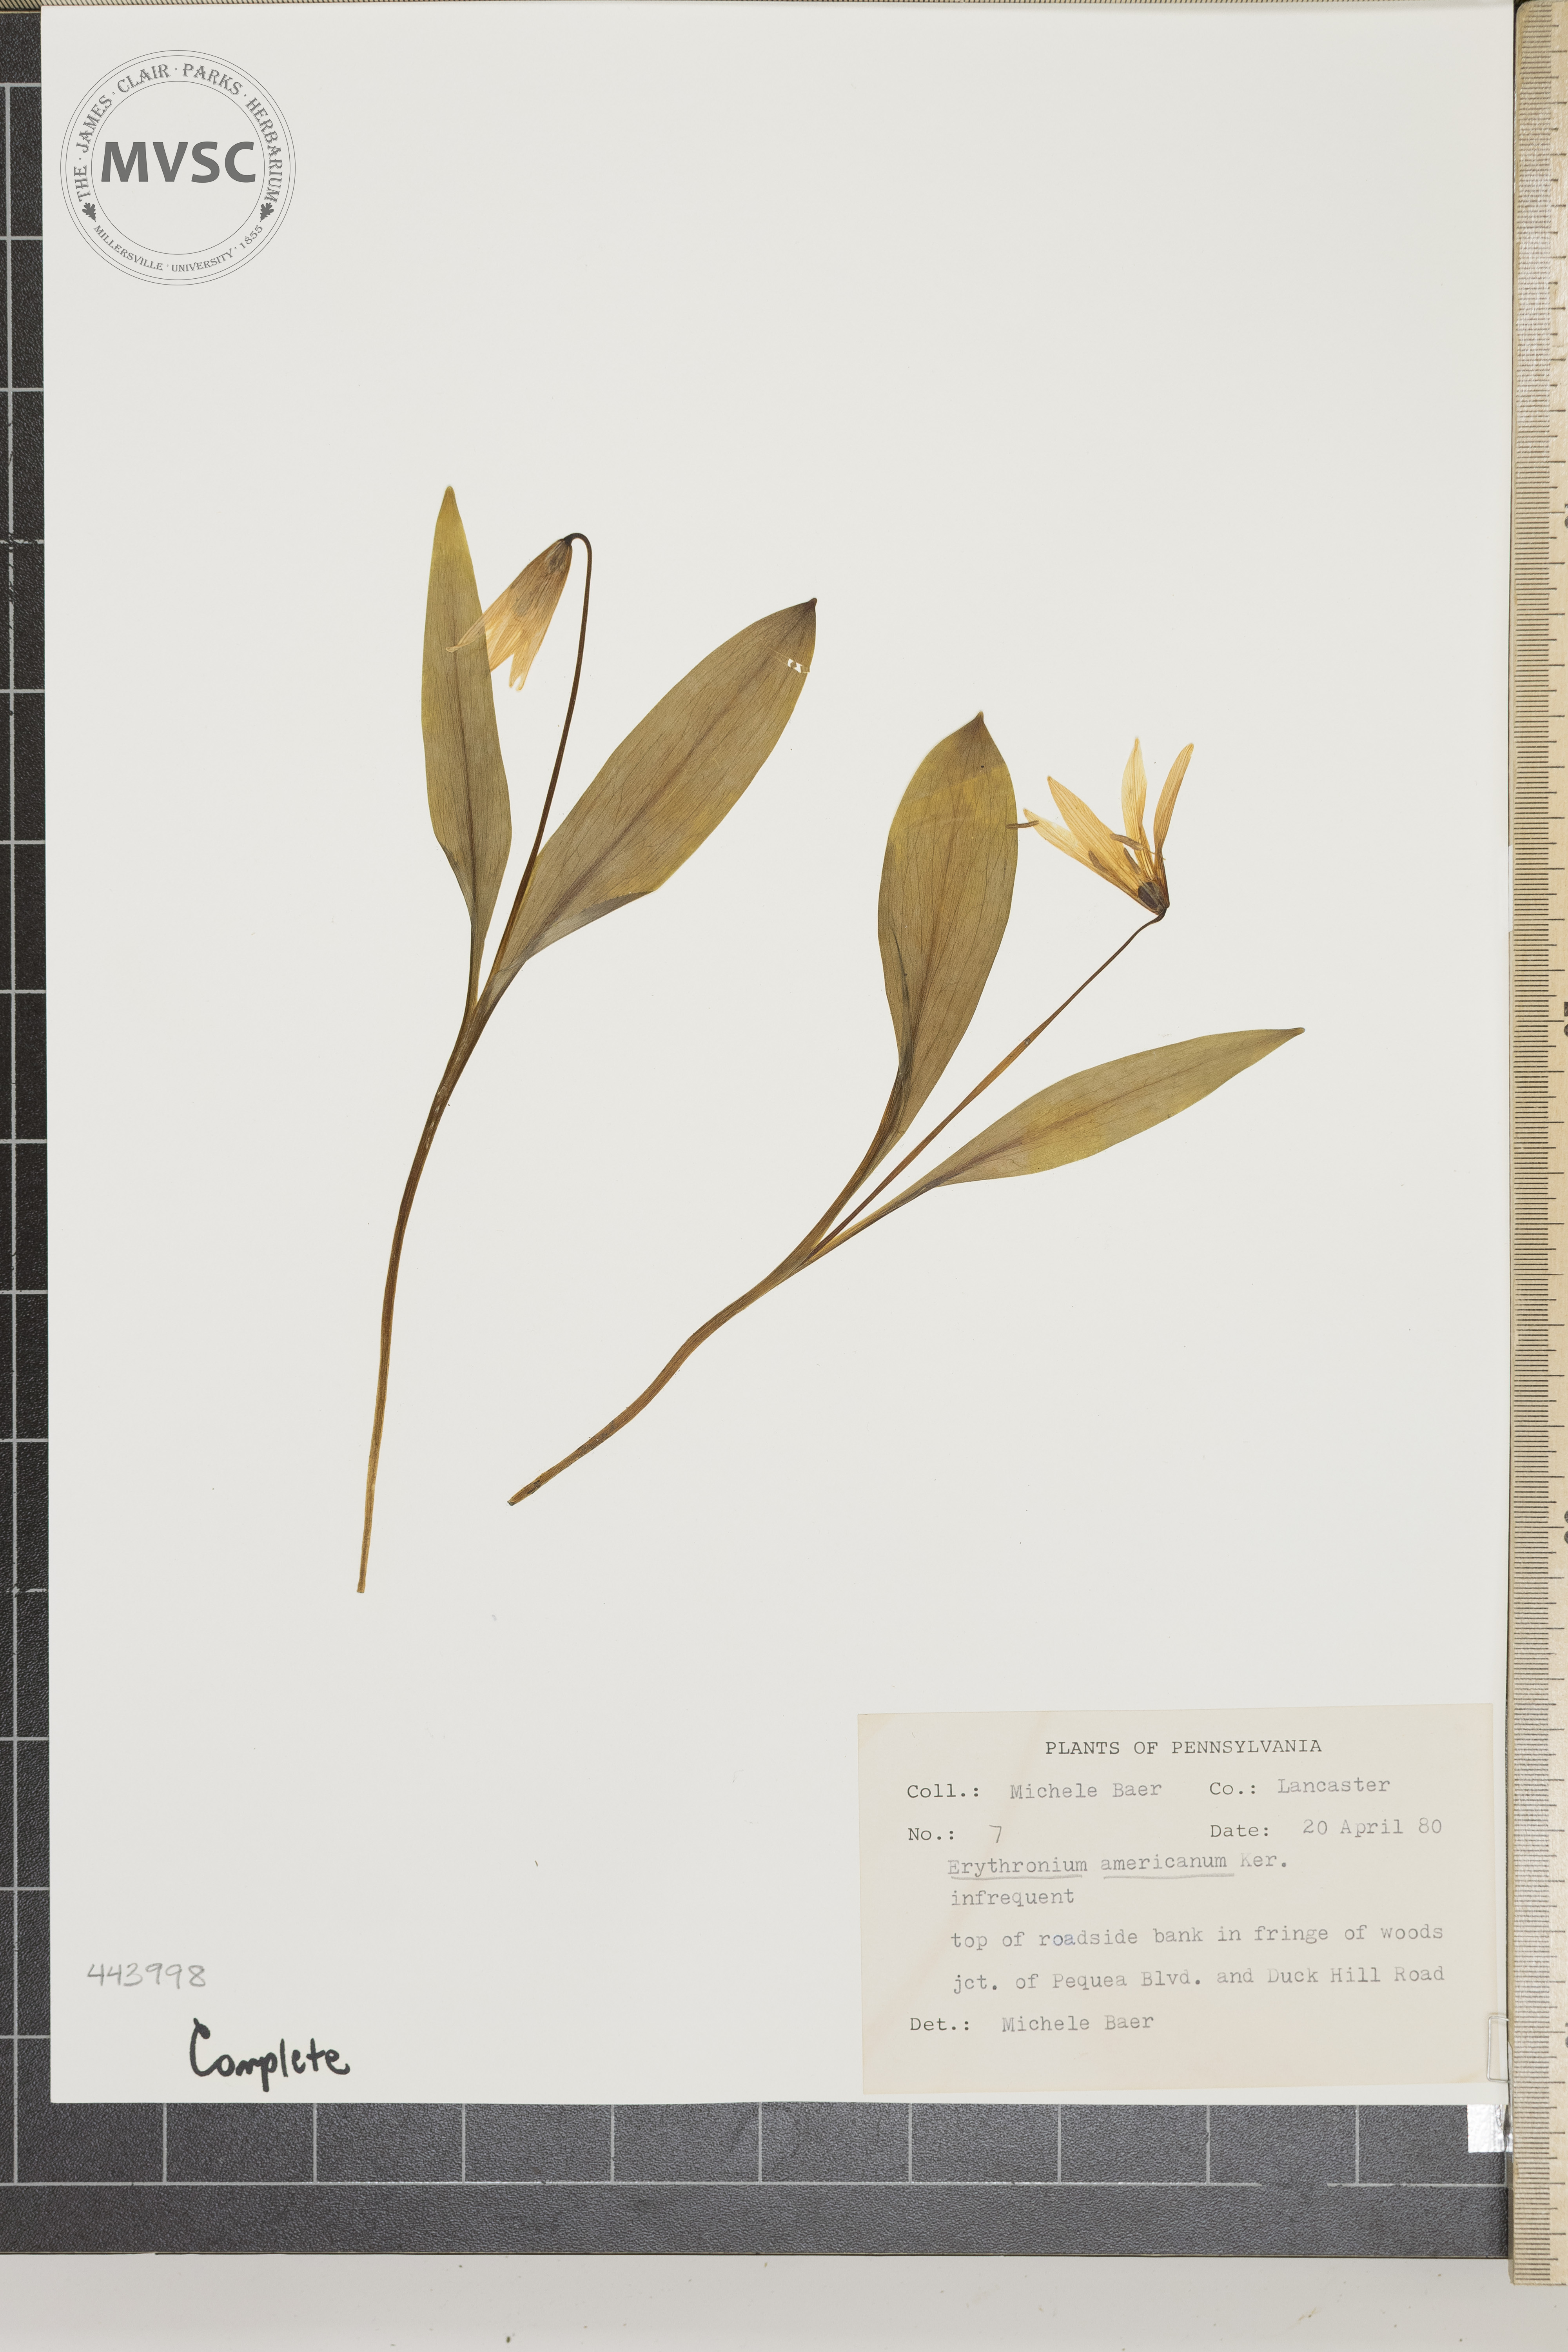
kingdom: Plantae
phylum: Tracheophyta
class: Liliopsida
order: Liliales
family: Liliaceae
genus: Erythronium
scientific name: Erythronium americanum
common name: Yellow adder's-tongue
